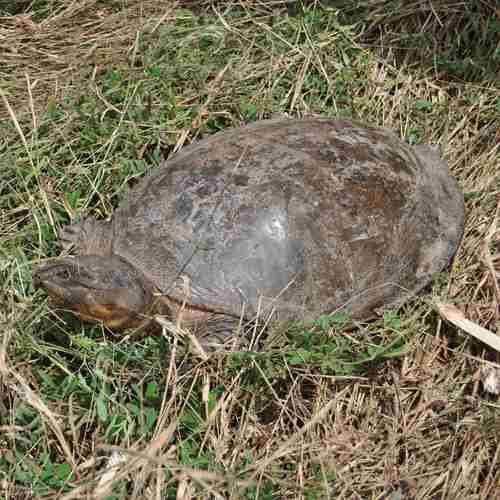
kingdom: Animalia
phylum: Chordata
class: Testudines
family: Trionychidae
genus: Cycloderma
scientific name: Cycloderma frenatum
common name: Zambezi soft-shelled turtle
